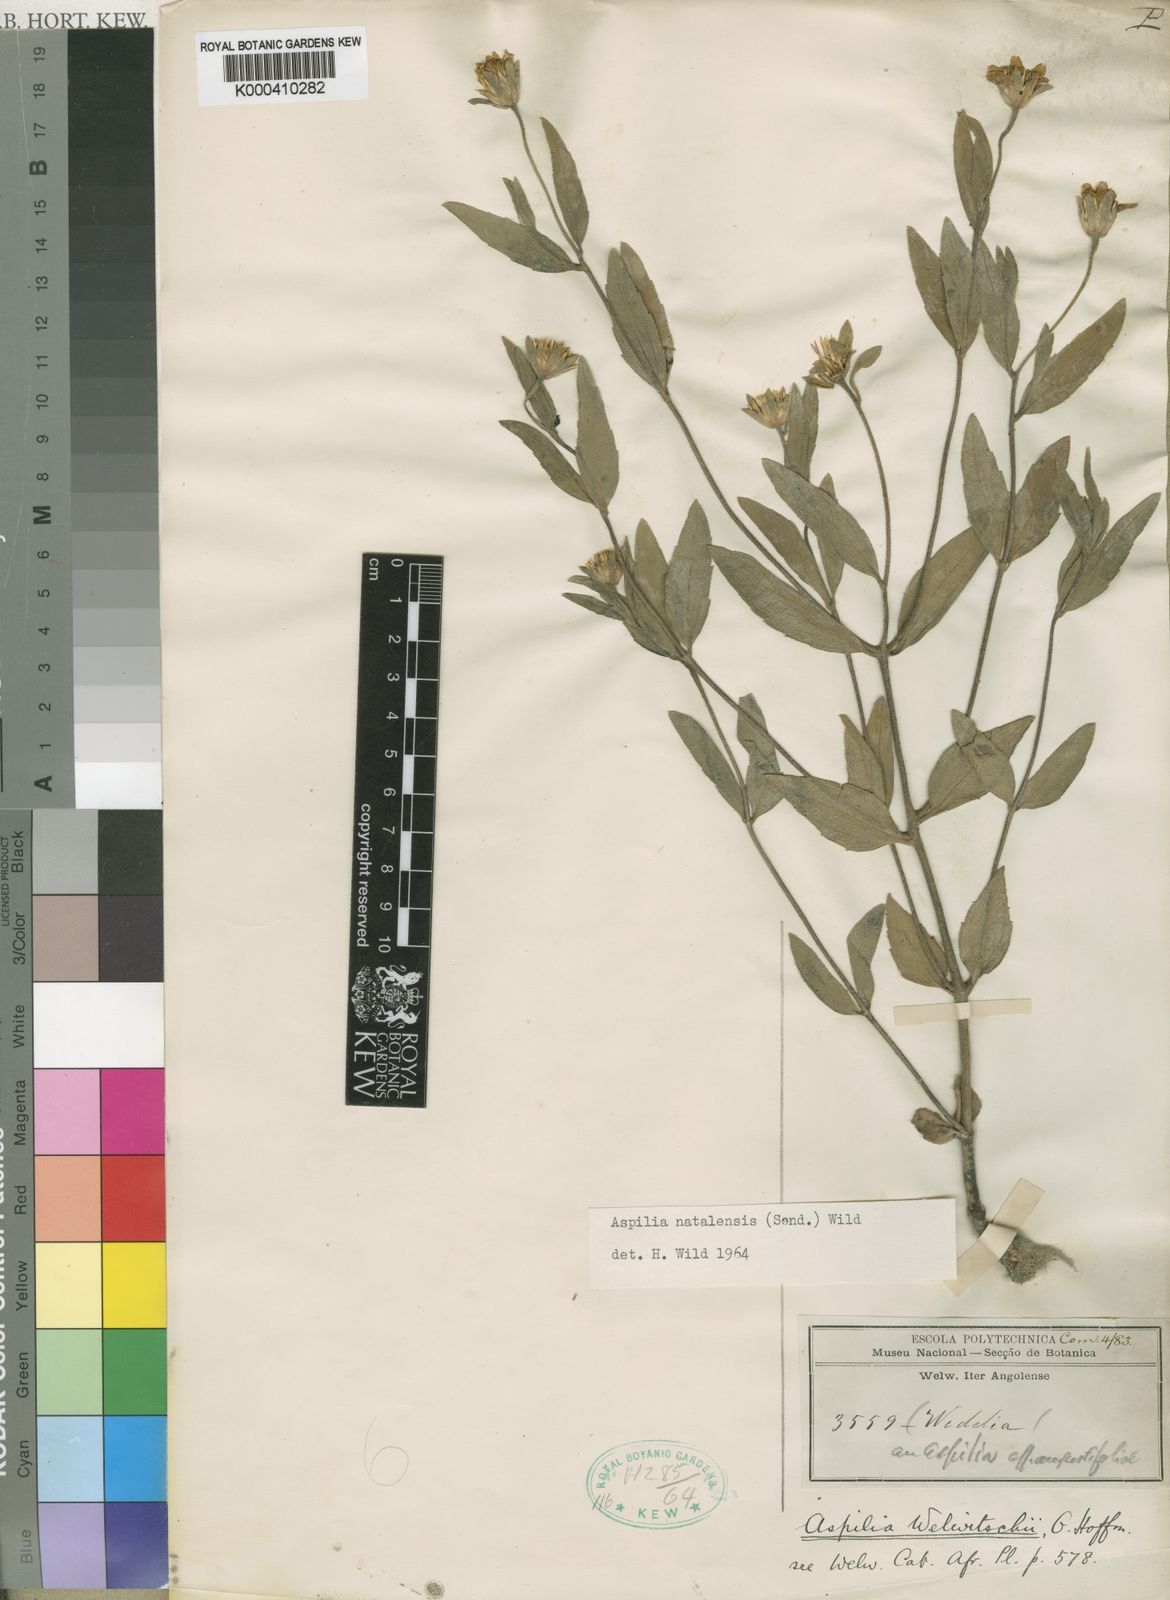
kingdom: Plantae
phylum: Tracheophyta
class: Magnoliopsida
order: Asterales
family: Asteraceae
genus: Aspilia
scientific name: Aspilia angolensis
